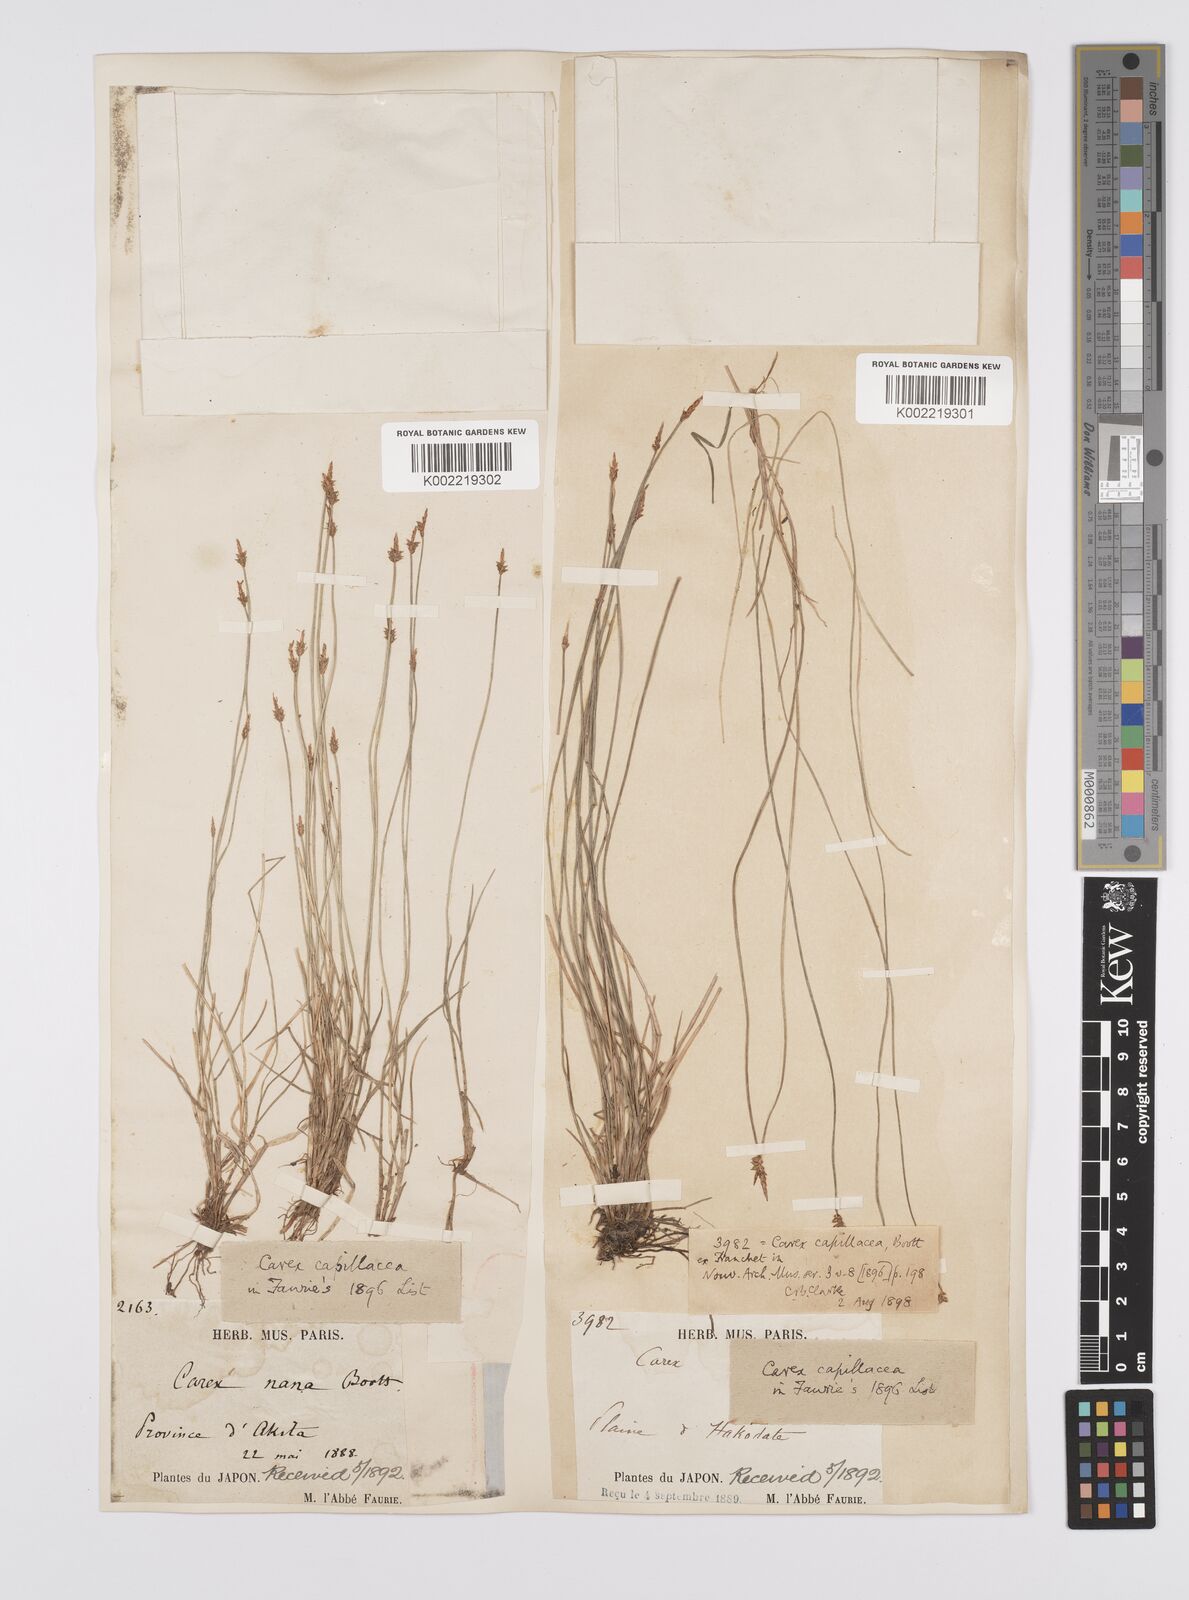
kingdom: Plantae
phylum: Tracheophyta
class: Liliopsida
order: Poales
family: Cyperaceae
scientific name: Cyperaceae
